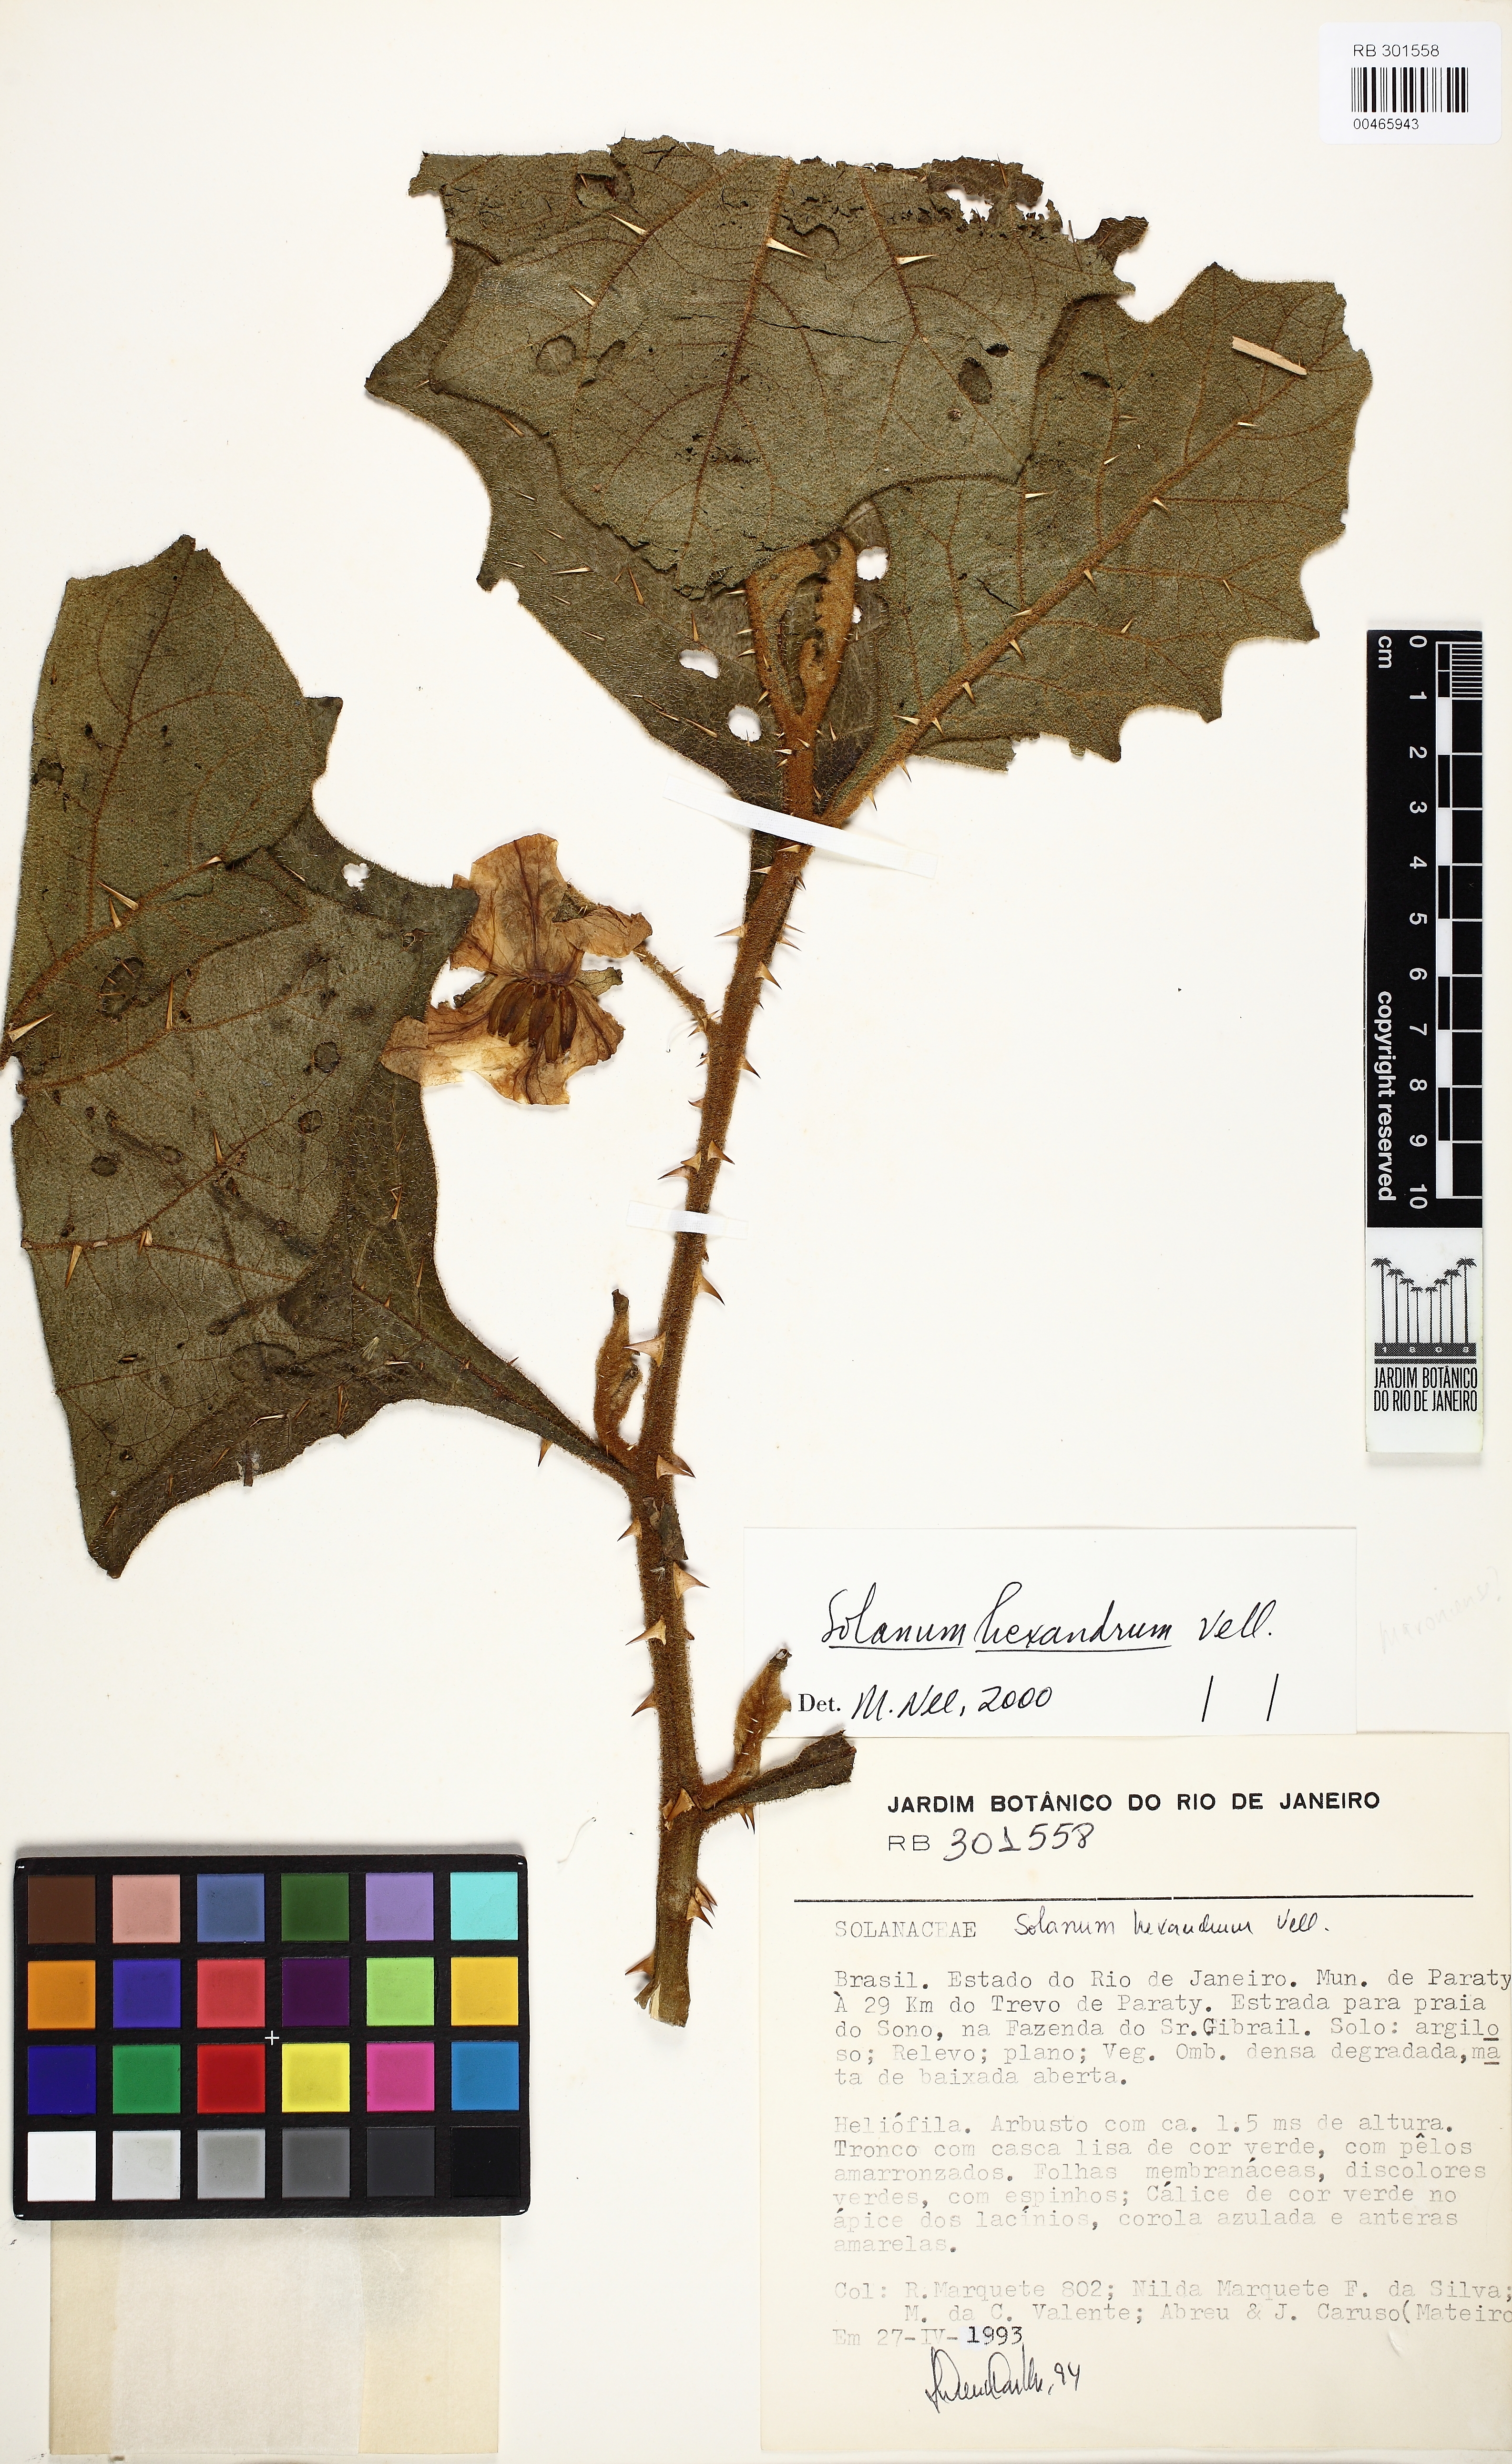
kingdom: Plantae
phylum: Tracheophyta
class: Magnoliopsida
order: Solanales
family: Solanaceae
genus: Solanum
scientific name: Solanum hexandrum
